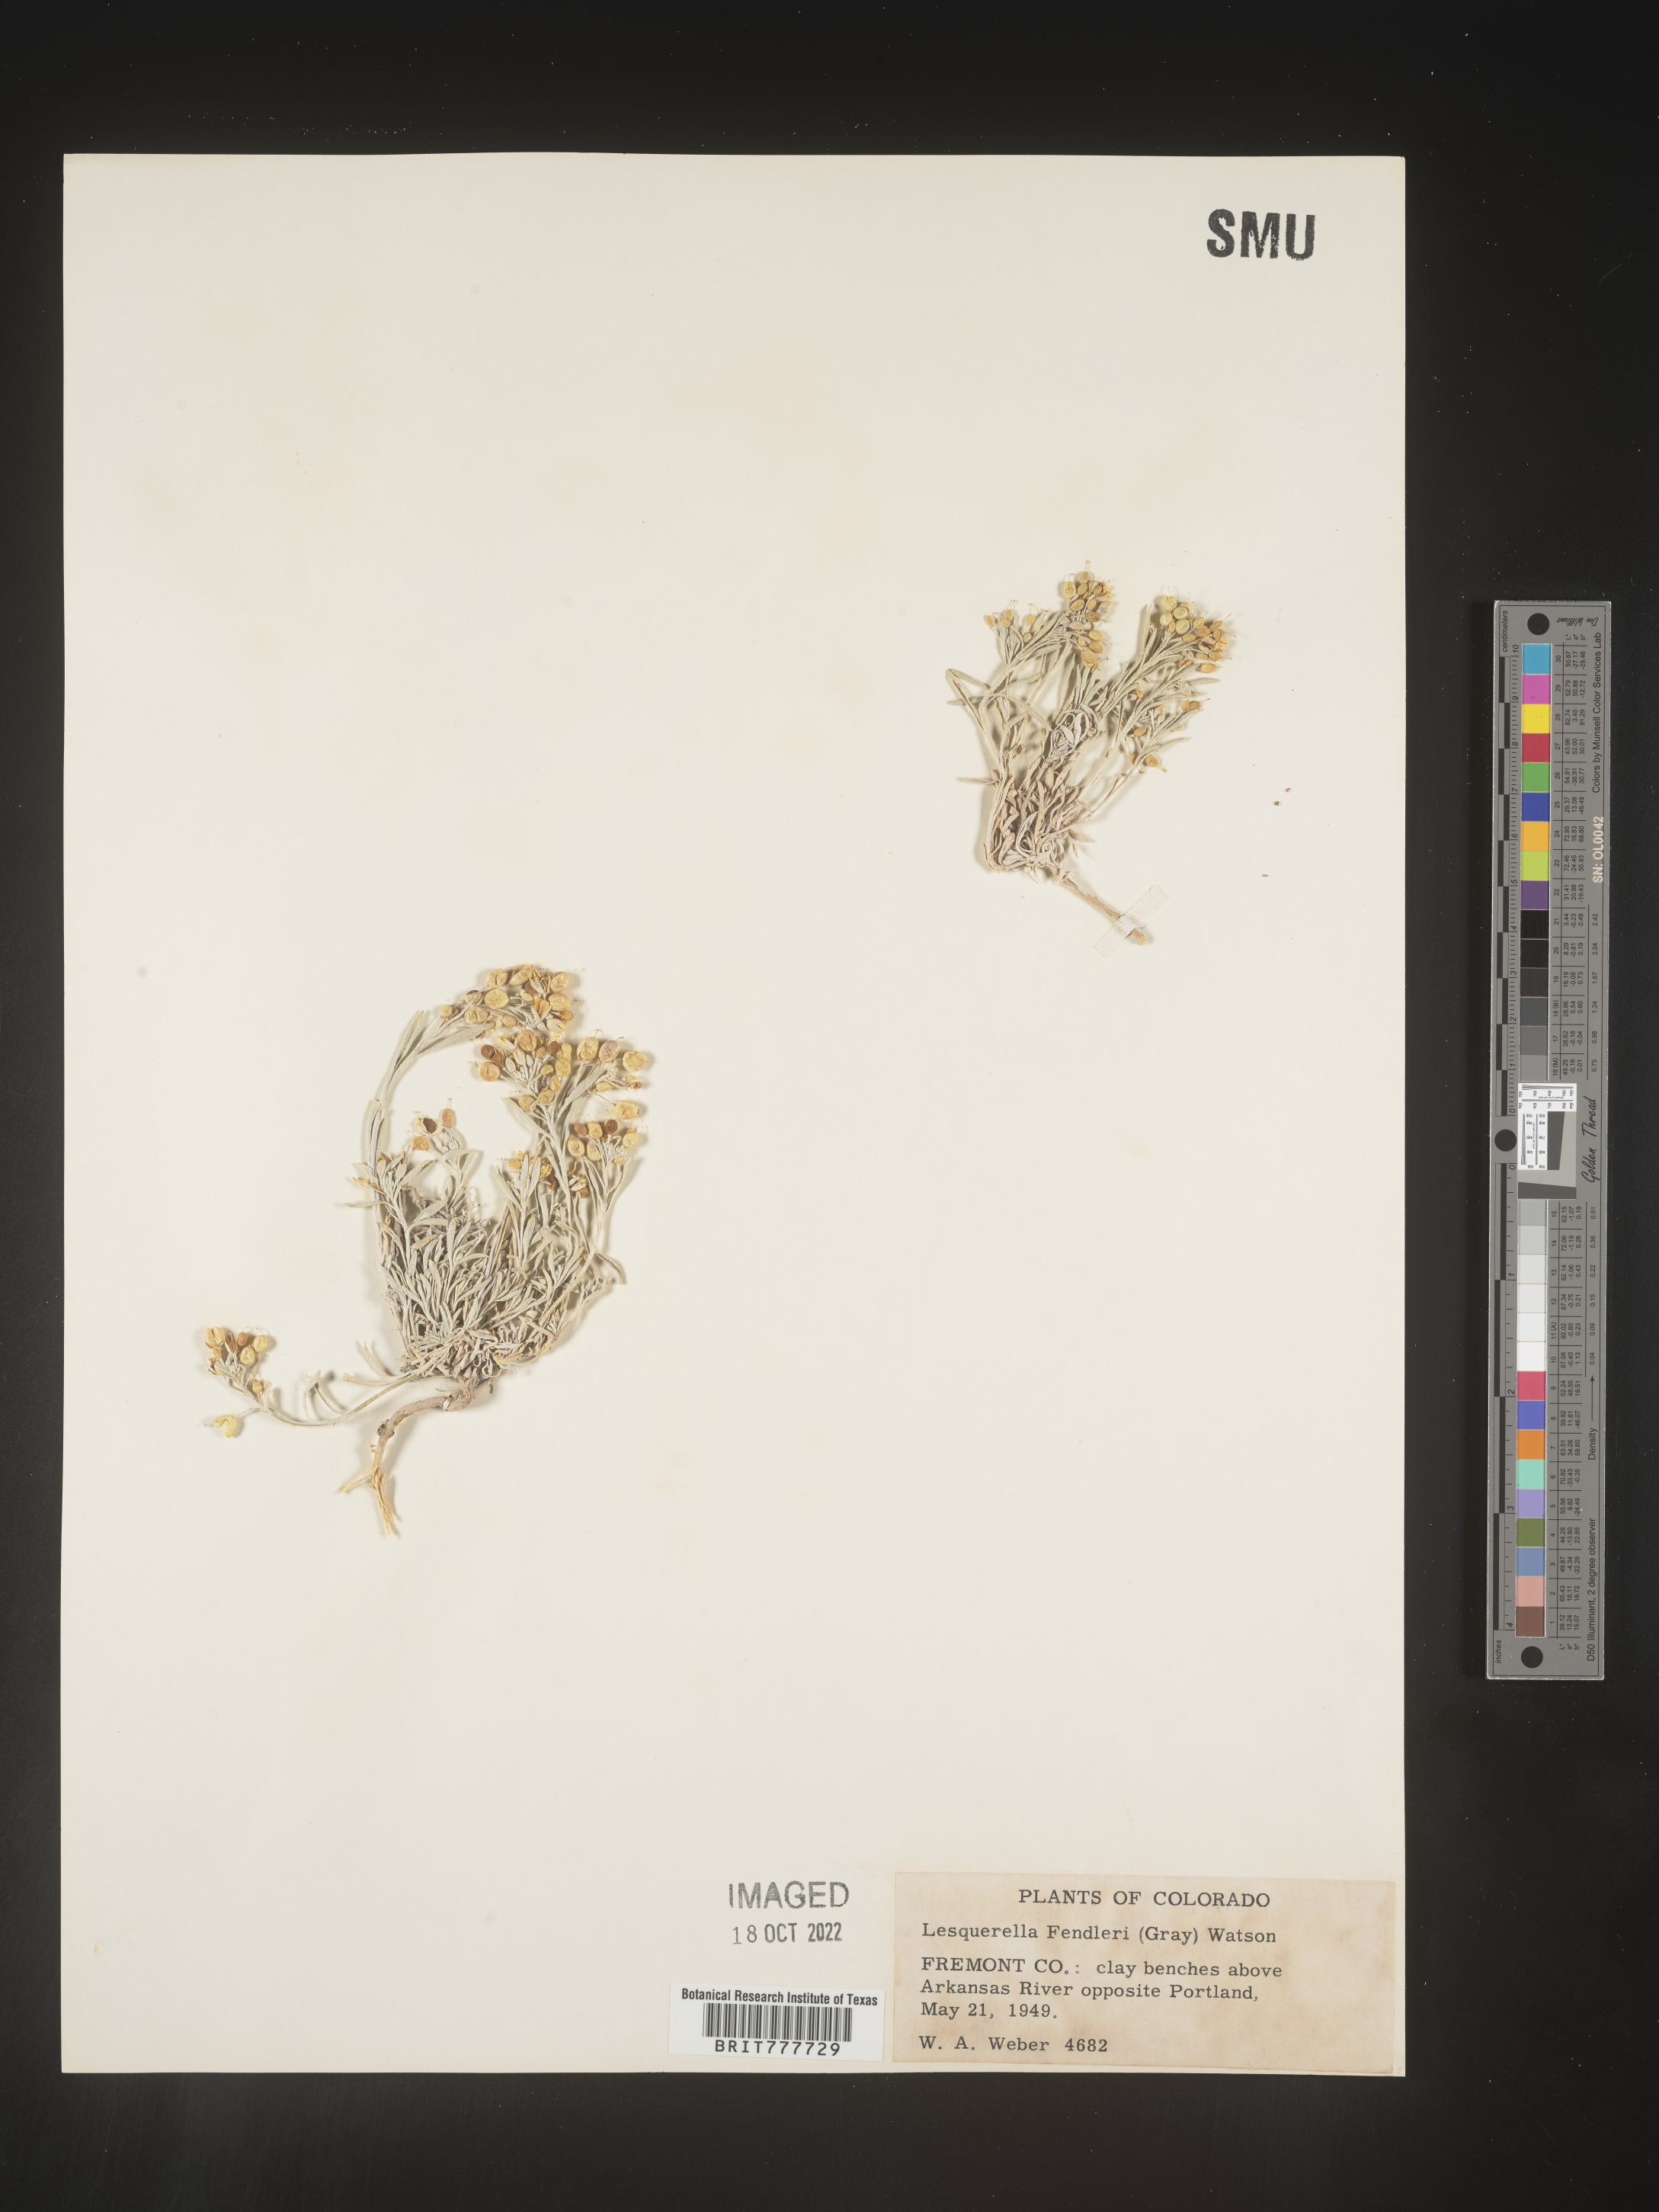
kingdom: Plantae
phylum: Tracheophyta
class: Magnoliopsida
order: Brassicales
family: Brassicaceae
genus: Physaria
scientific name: Physaria fendleri
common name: Fendler's bladderpod
